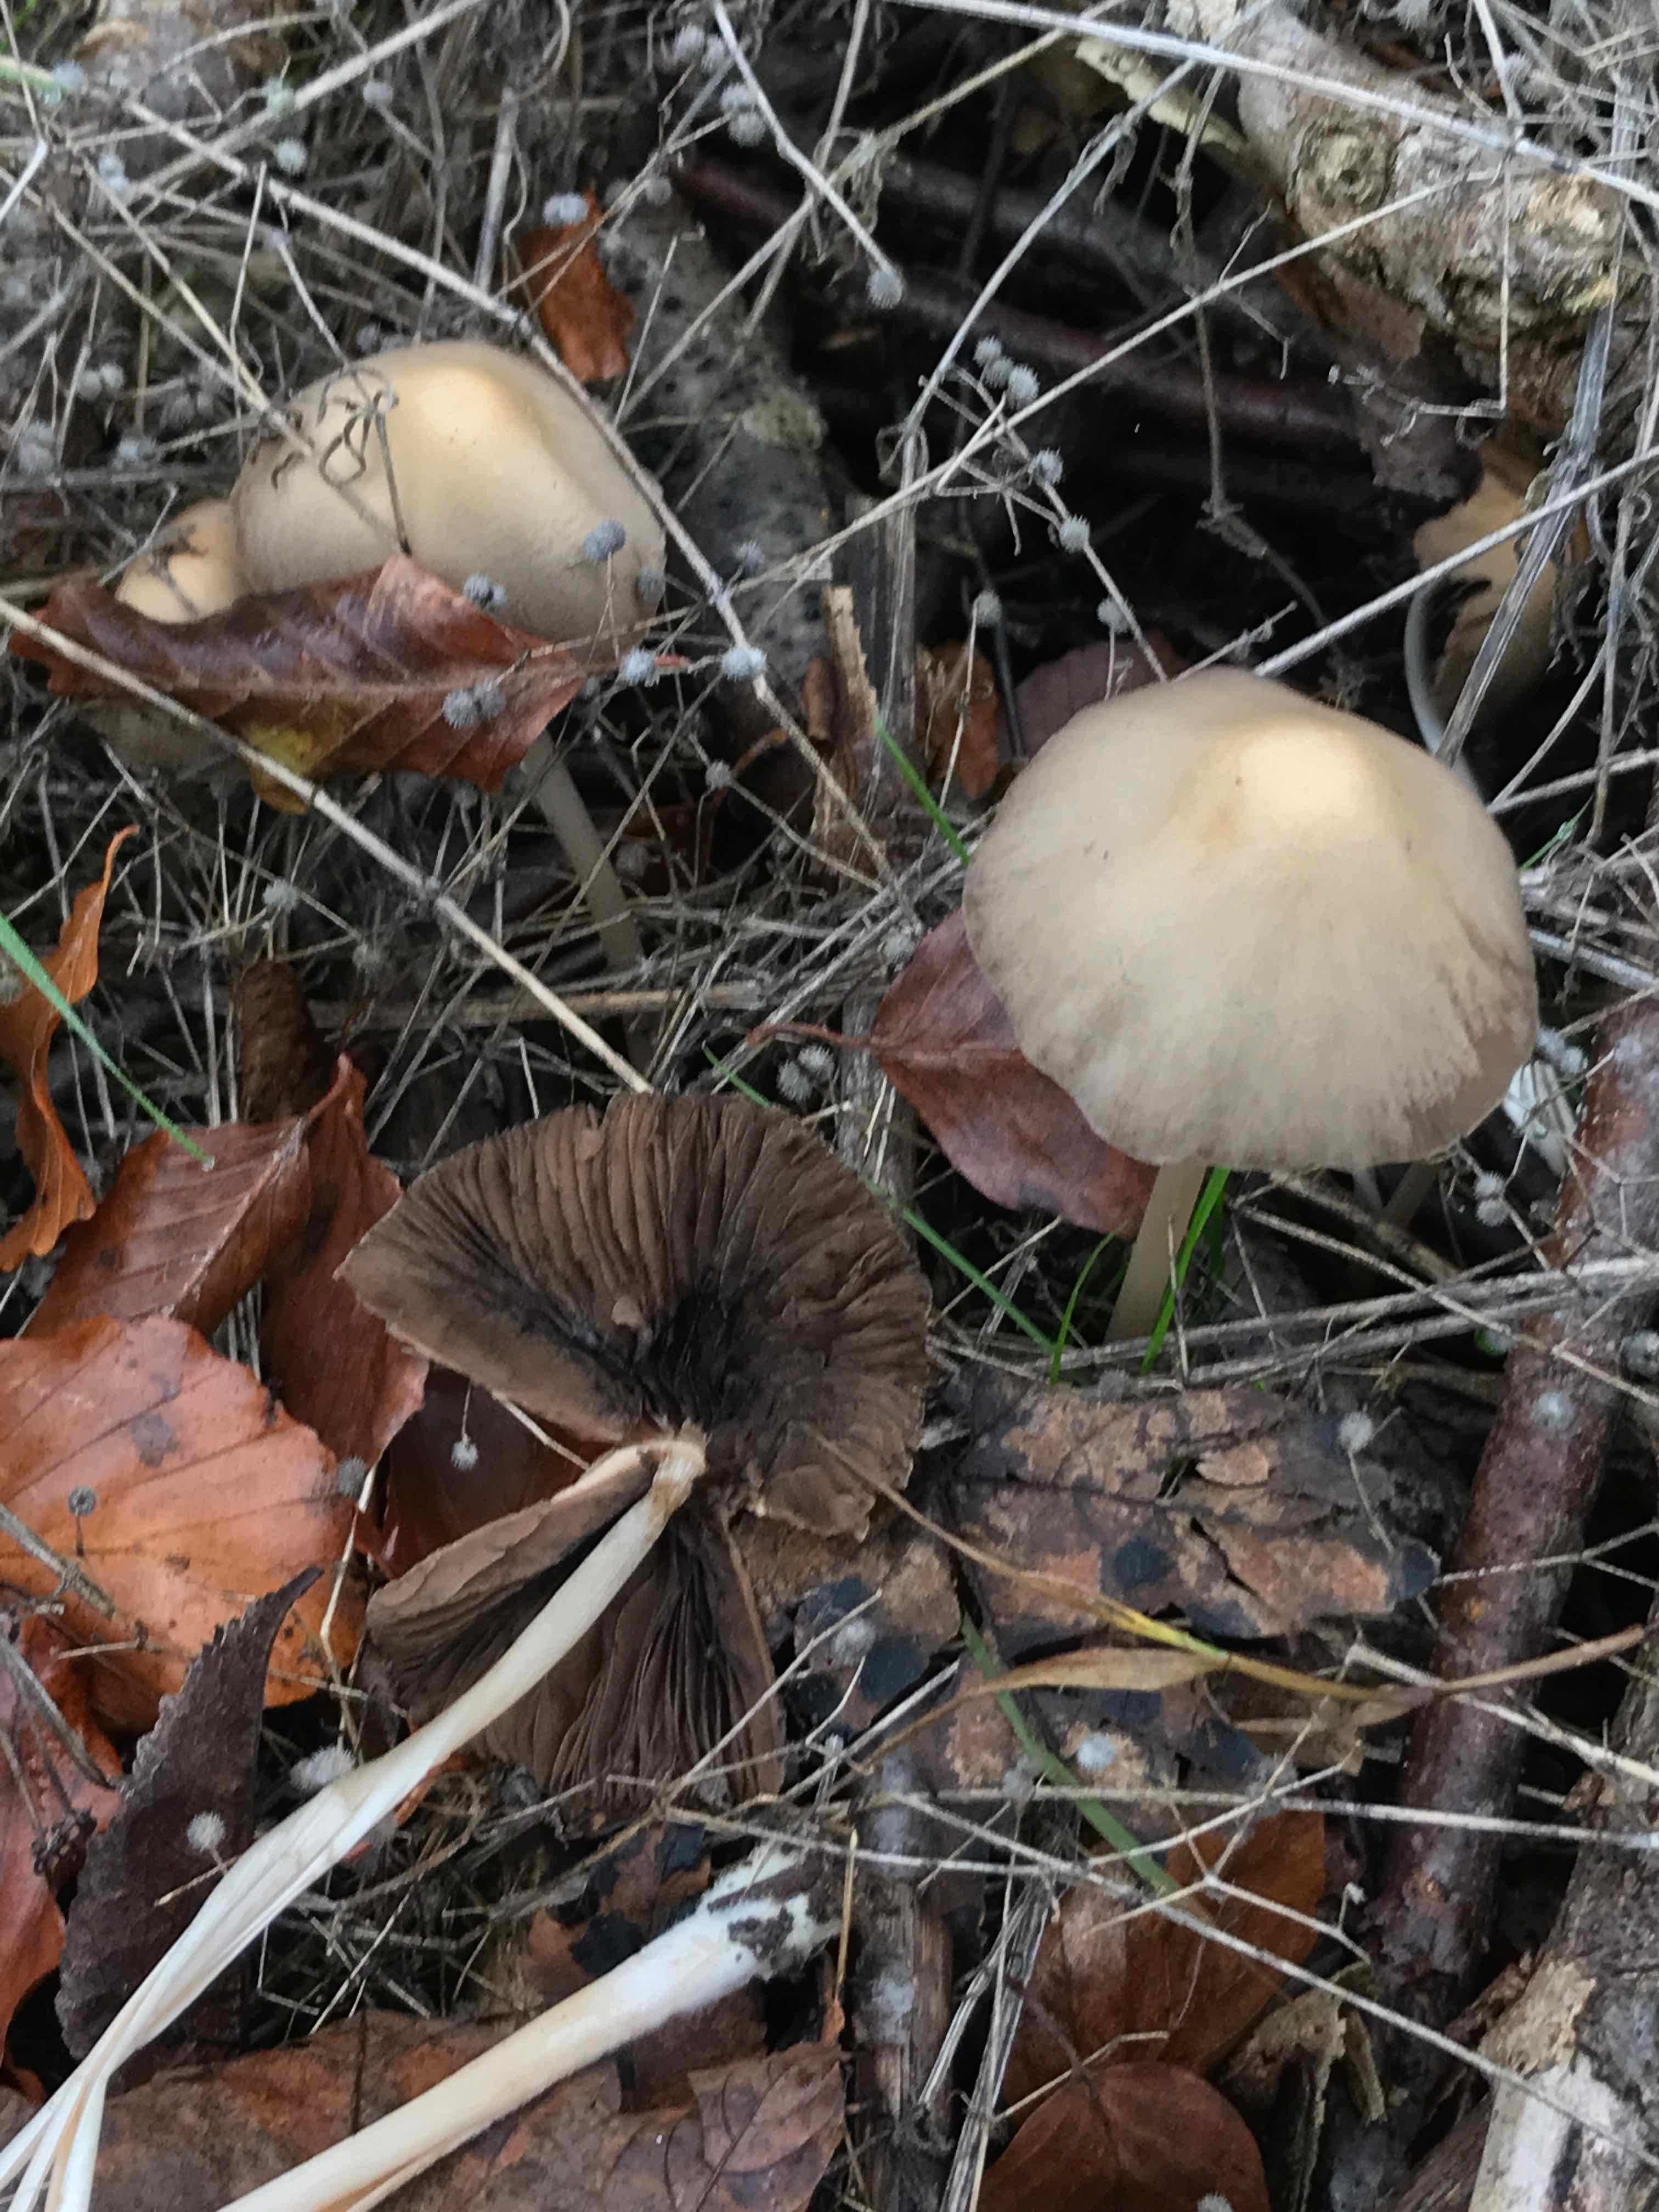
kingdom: Fungi
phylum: Basidiomycota
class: Agaricomycetes
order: Agaricales
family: Psathyrellaceae
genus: Parasola
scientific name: Parasola conopilea
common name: kegle-hjulhat
